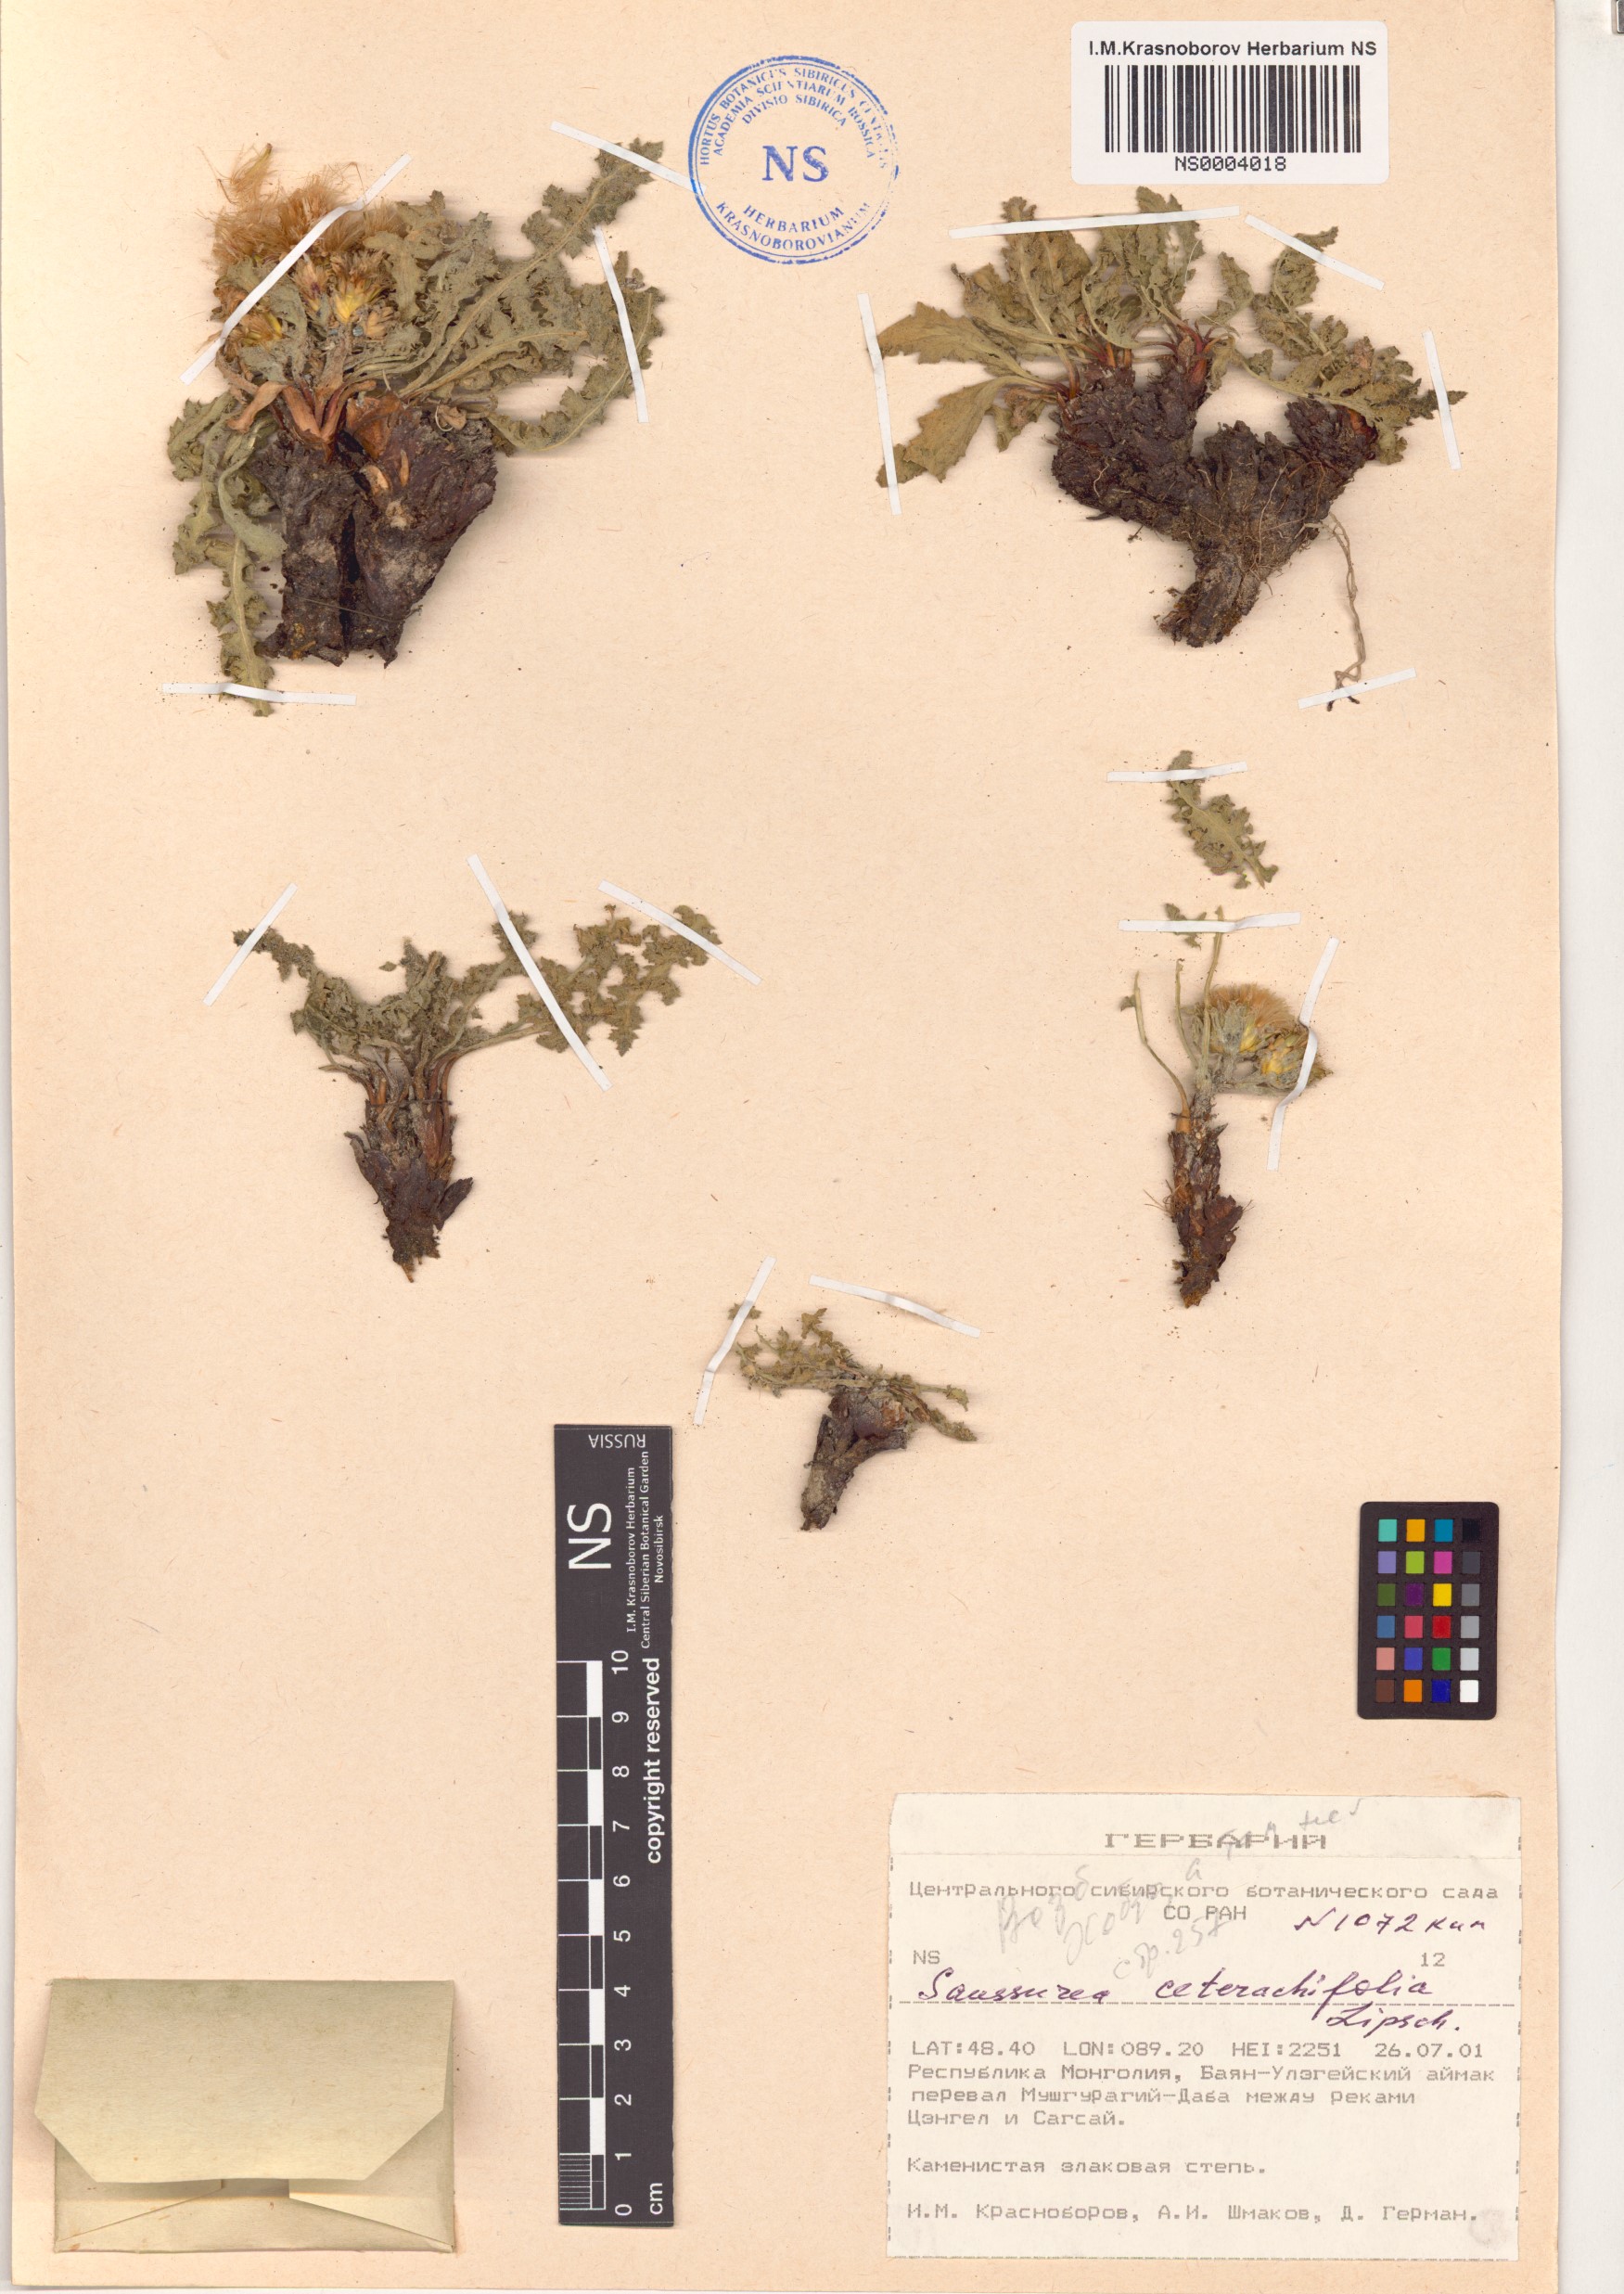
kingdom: Plantae
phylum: Tracheophyta
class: Magnoliopsida
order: Asterales
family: Asteraceae
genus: Saussurea
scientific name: Saussurea ceterachifolia
